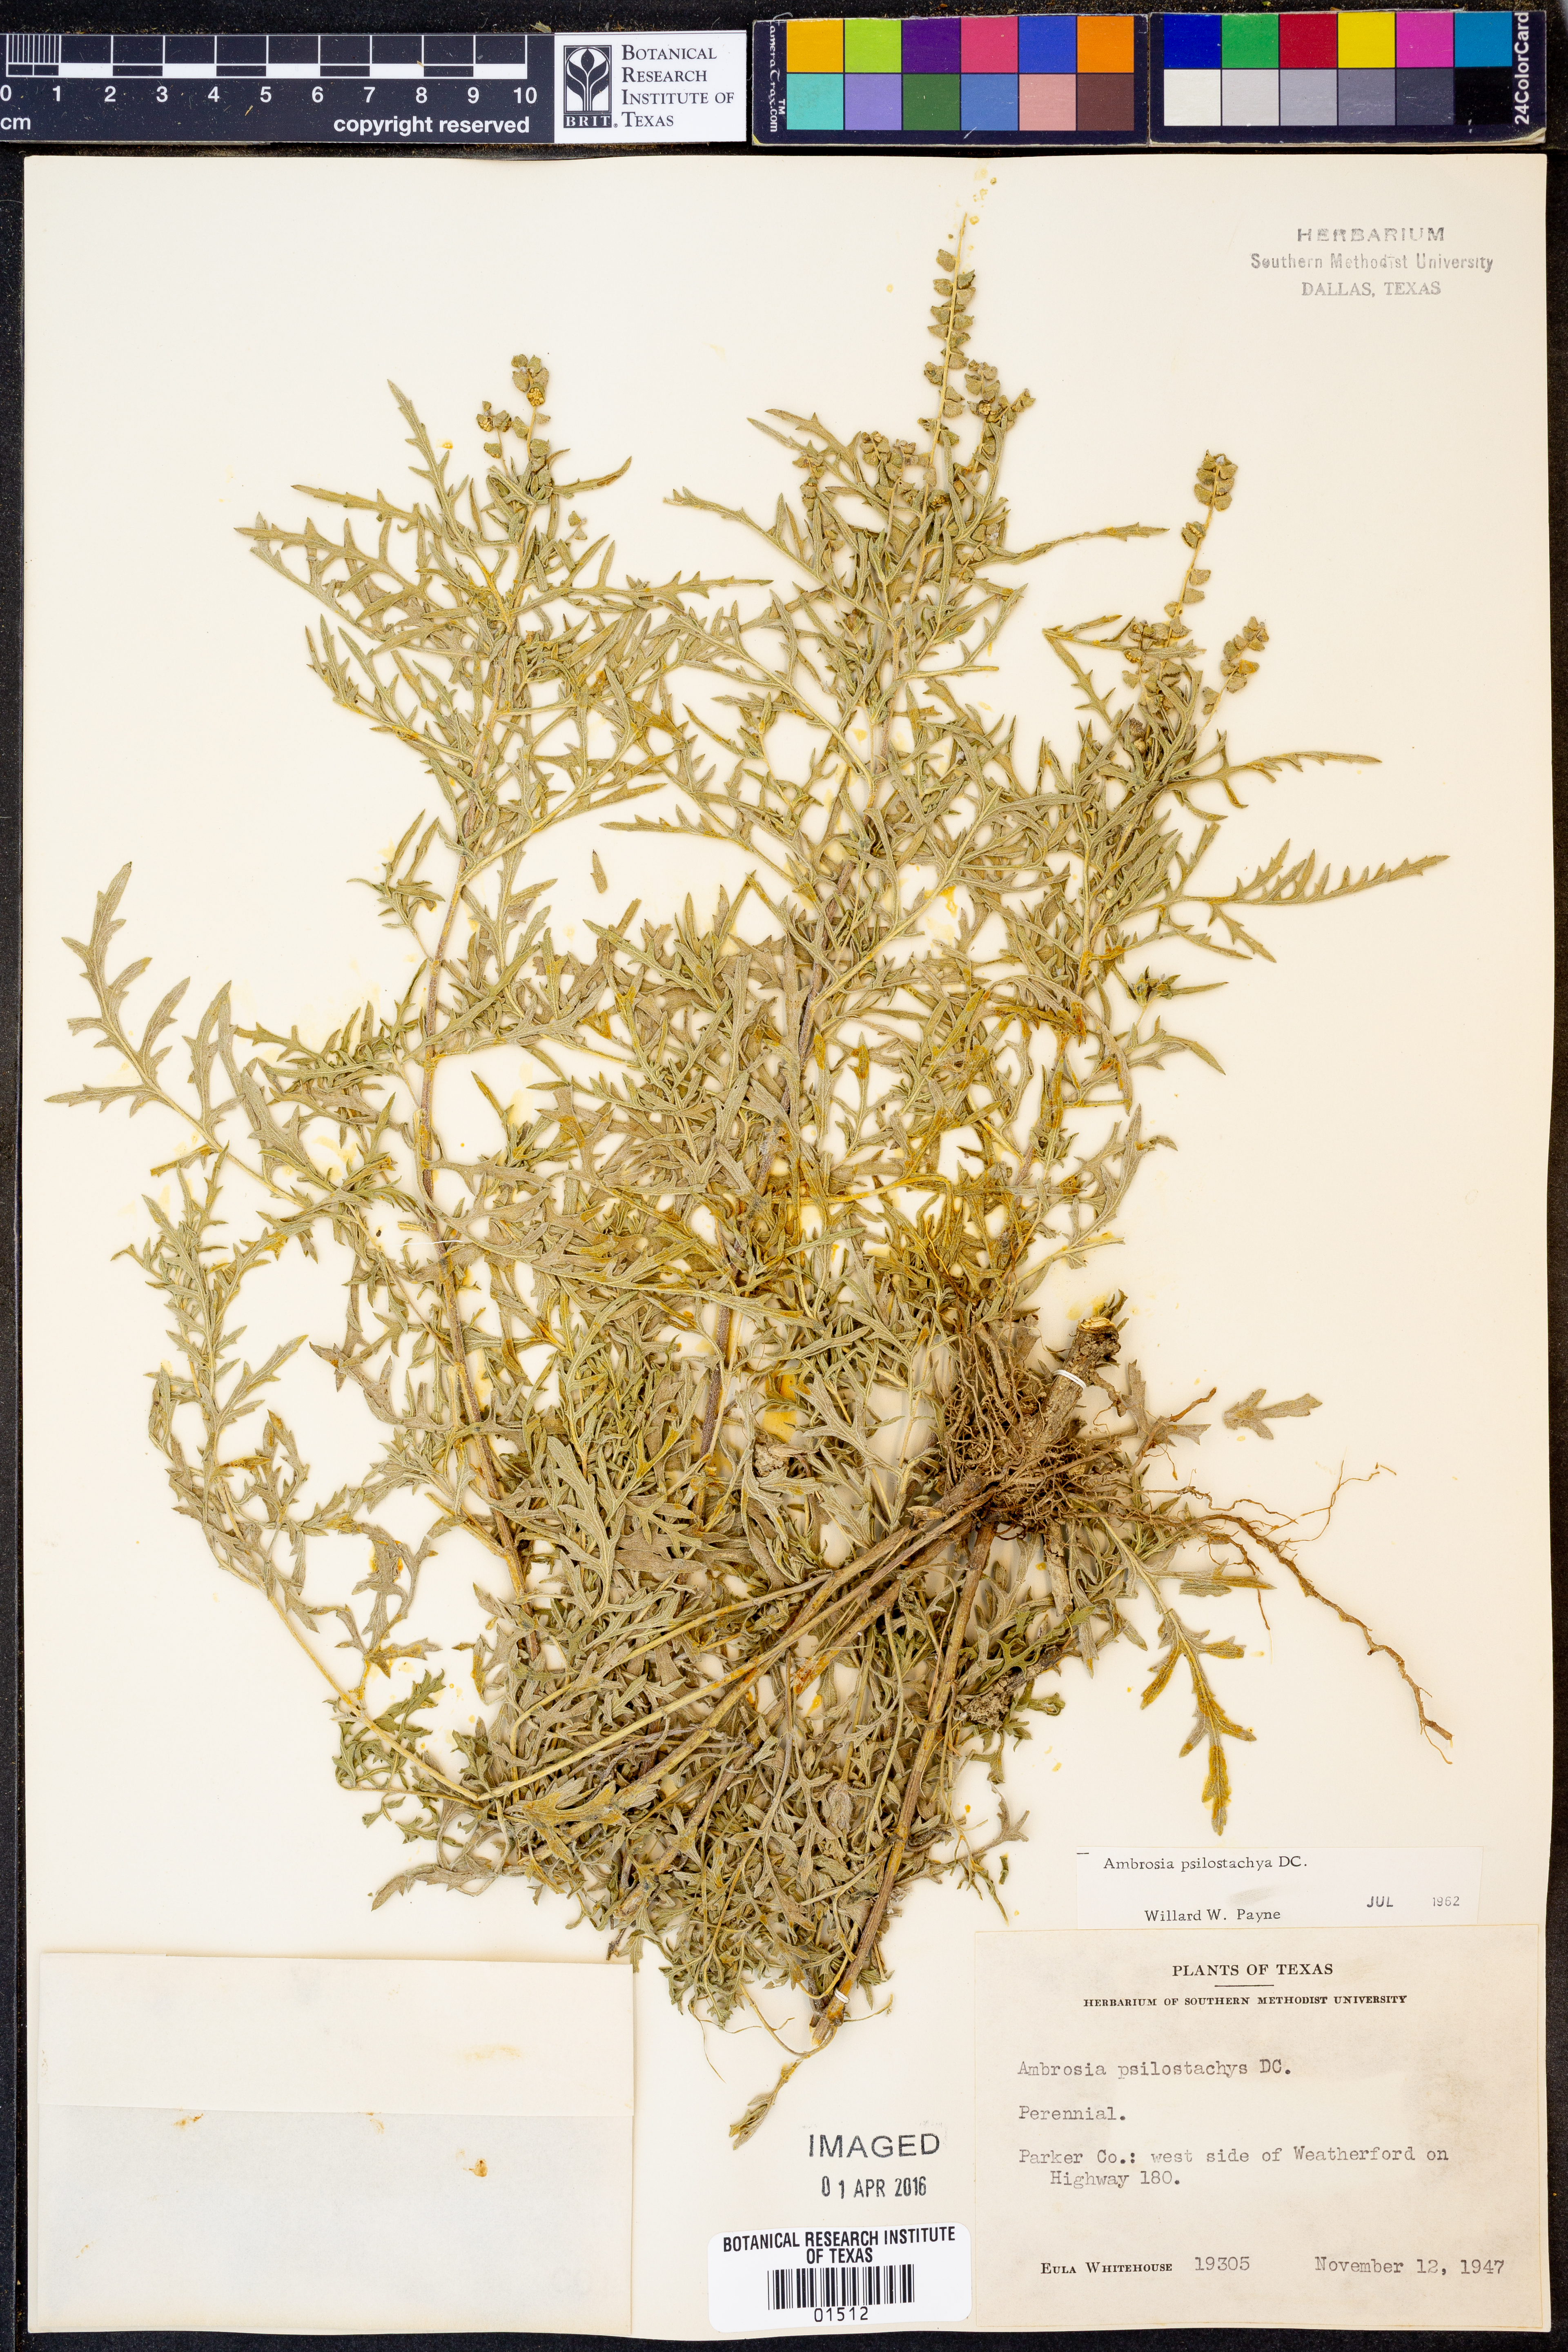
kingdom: Plantae
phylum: Tracheophyta
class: Magnoliopsida
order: Asterales
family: Asteraceae
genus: Ambrosia
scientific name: Ambrosia psilostachya
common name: Perennial ragweed
